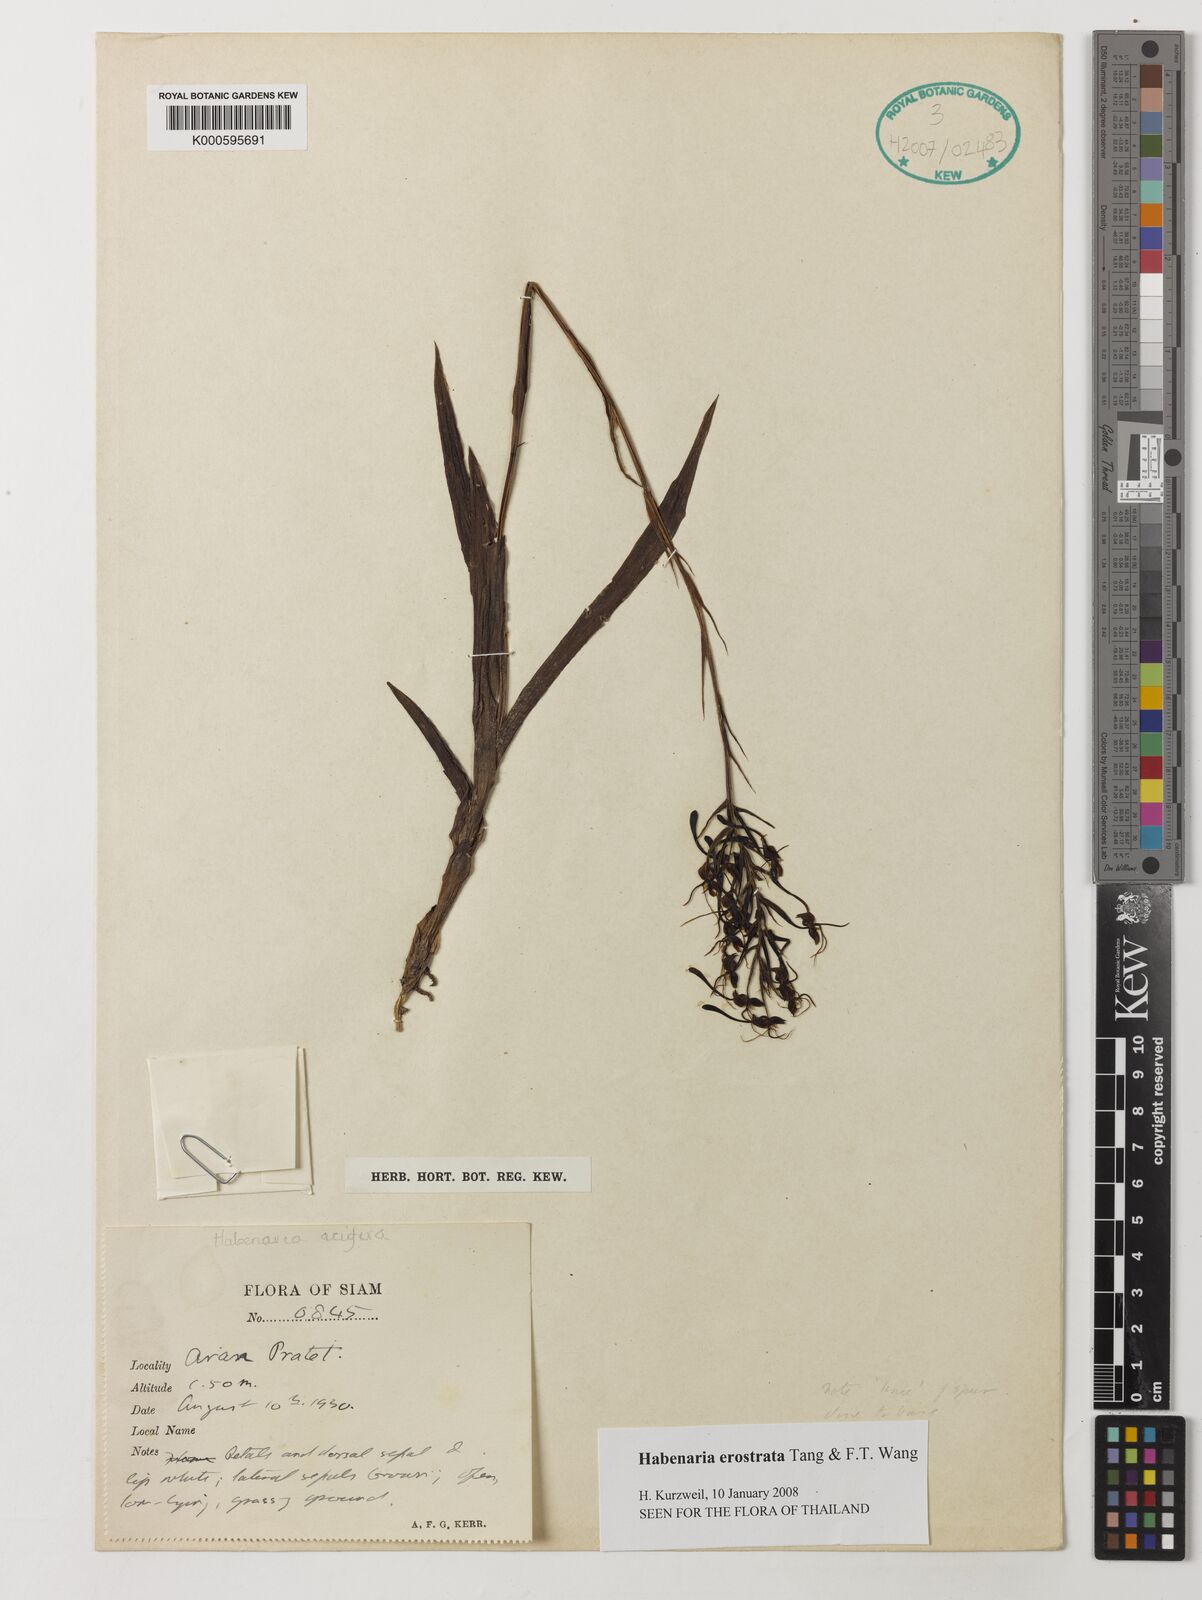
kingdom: Plantae
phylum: Tracheophyta
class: Liliopsida
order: Asparagales
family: Orchidaceae
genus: Habenaria
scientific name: Habenaria erostrata
